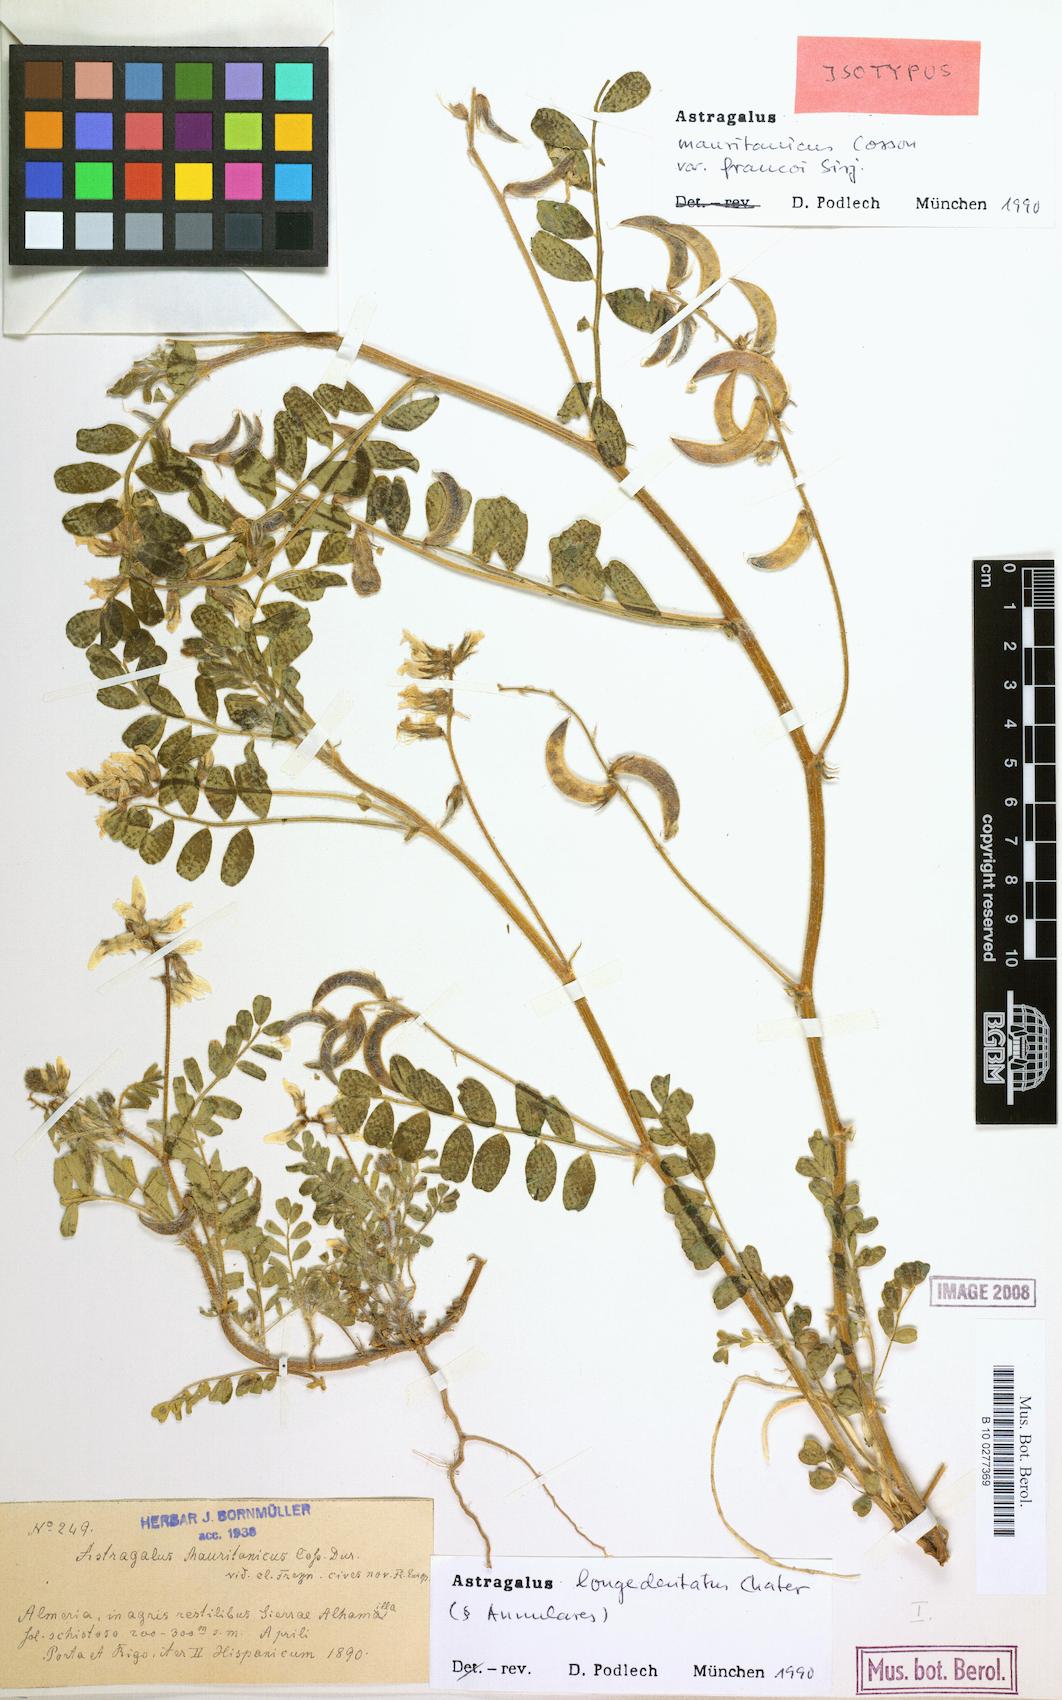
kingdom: Plantae
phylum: Tracheophyta
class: Magnoliopsida
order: Fabales
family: Fabaceae
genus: Astragalus
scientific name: Astragalus longidentatus
